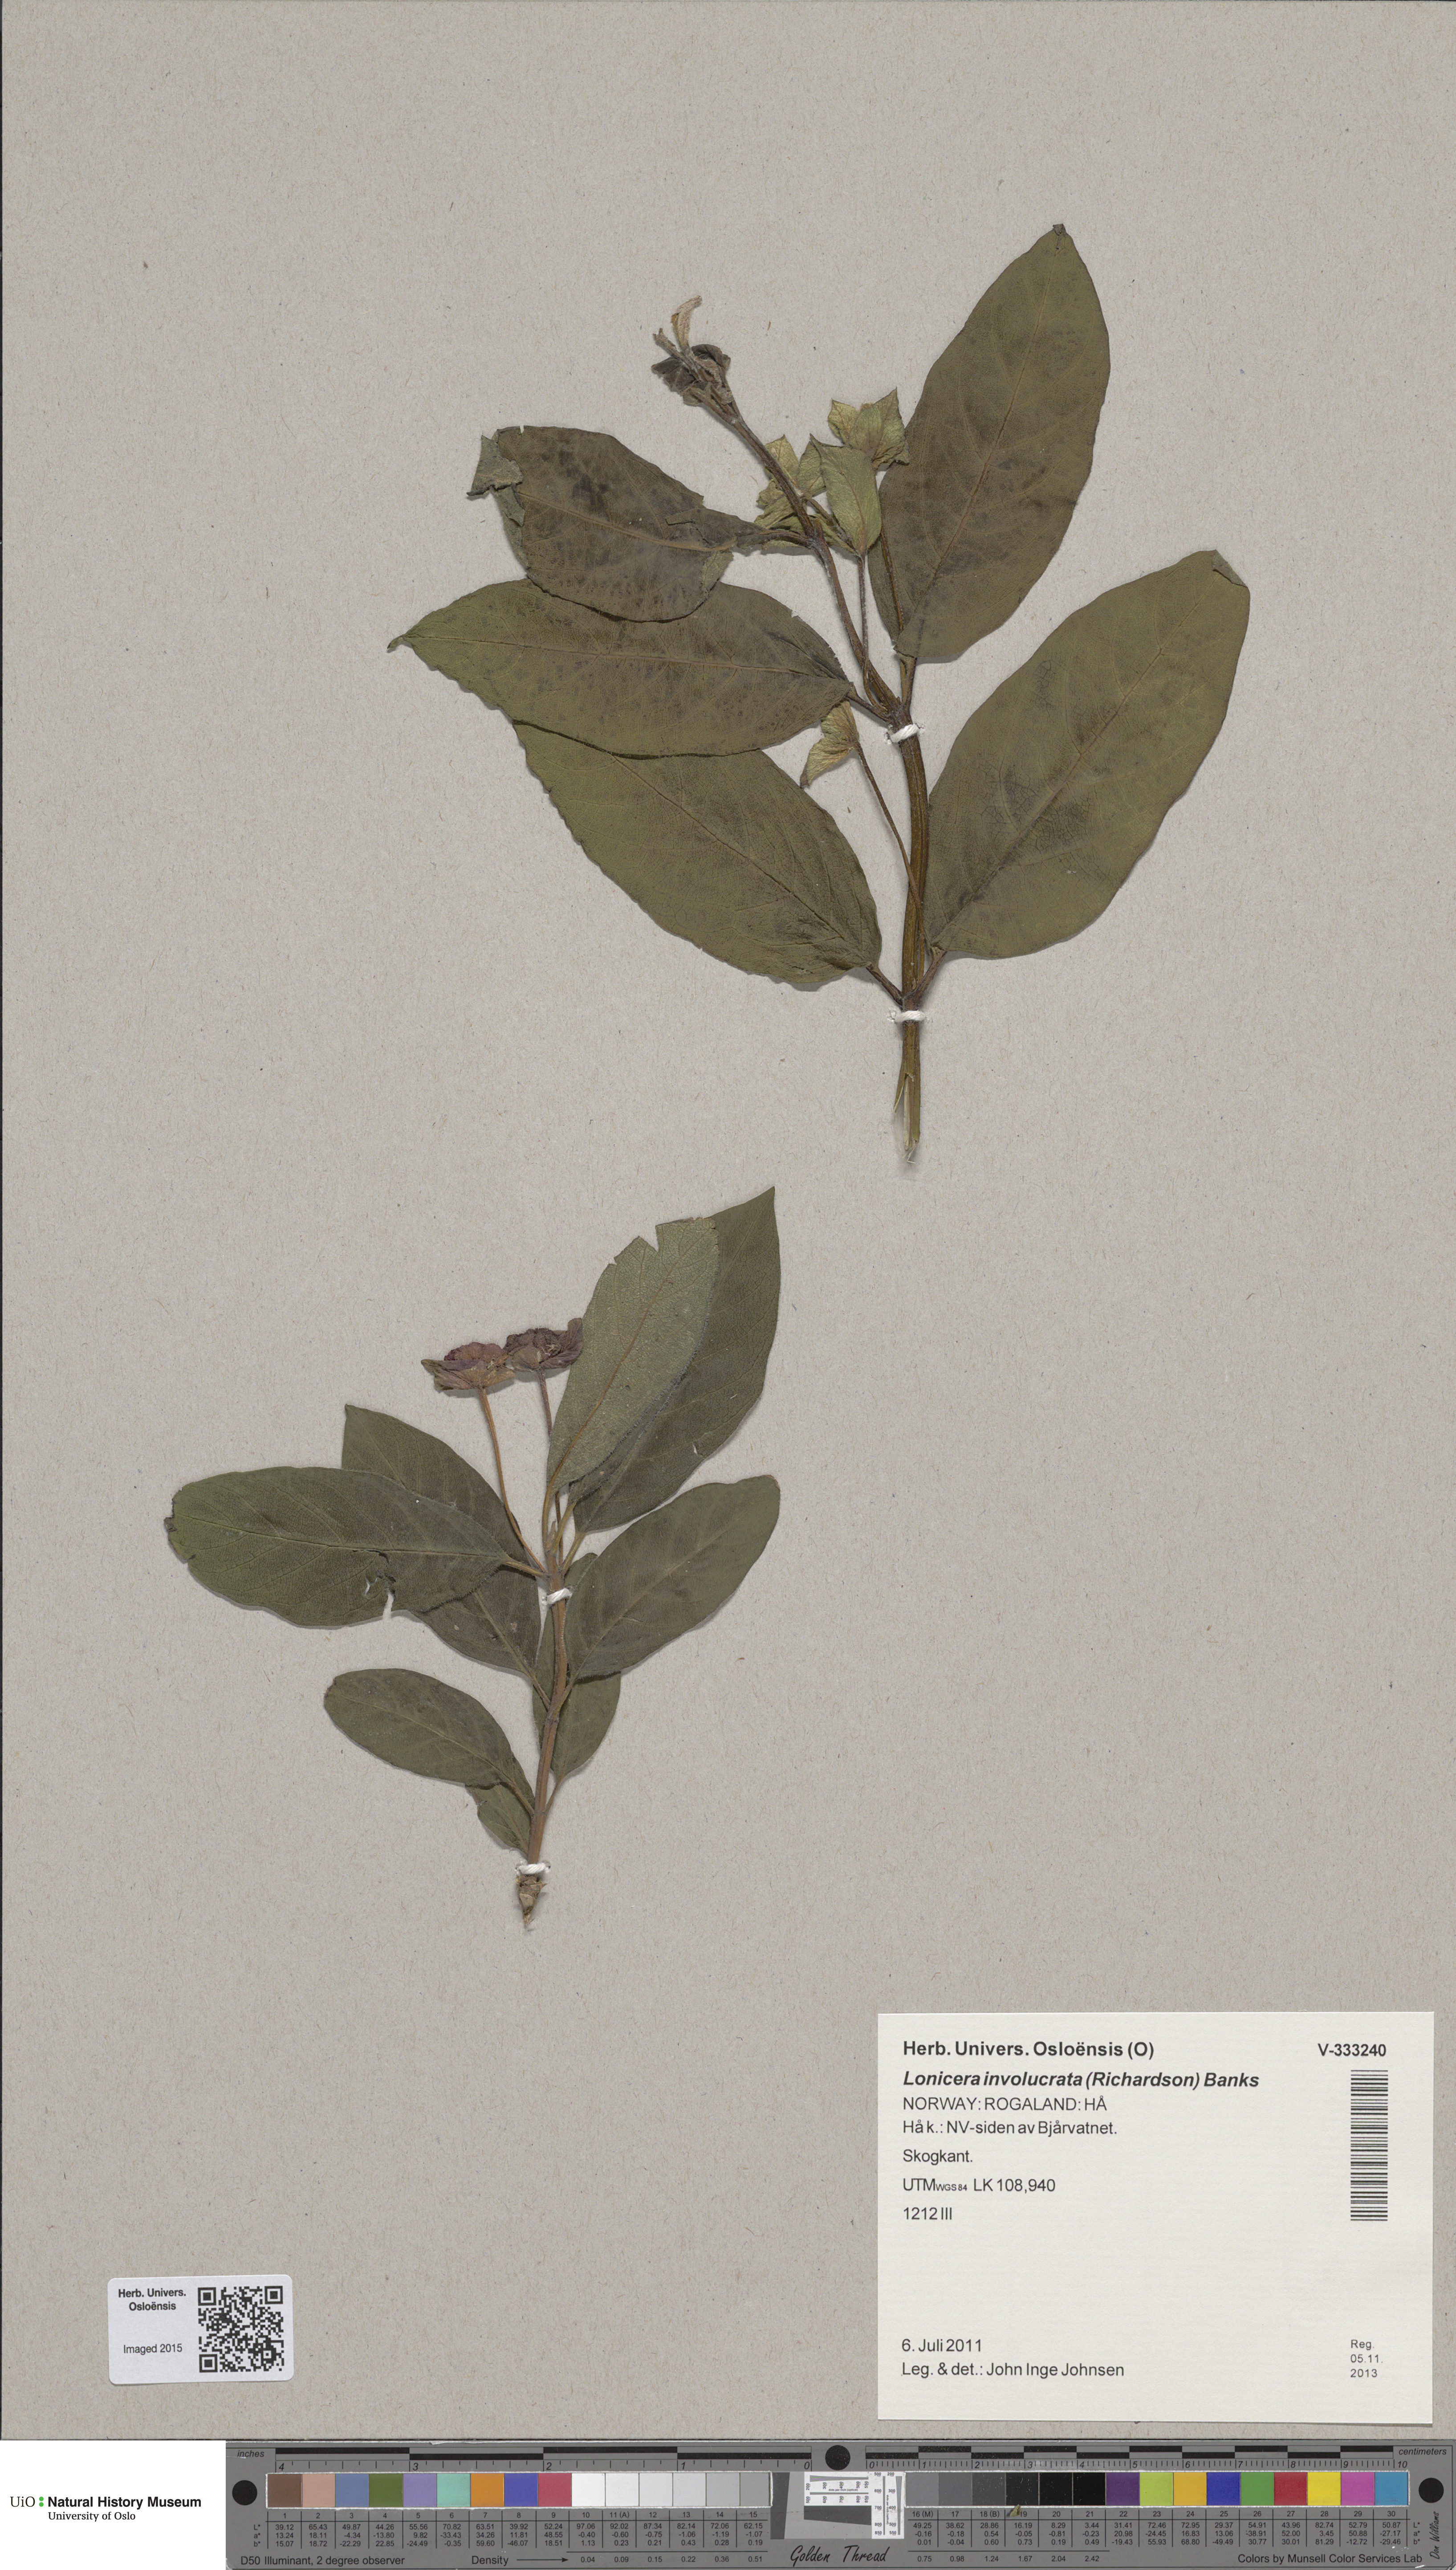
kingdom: Plantae
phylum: Tracheophyta
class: Magnoliopsida
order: Dipsacales
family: Caprifoliaceae
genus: Lonicera
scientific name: Lonicera involucrata
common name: Californian honeysuckle
